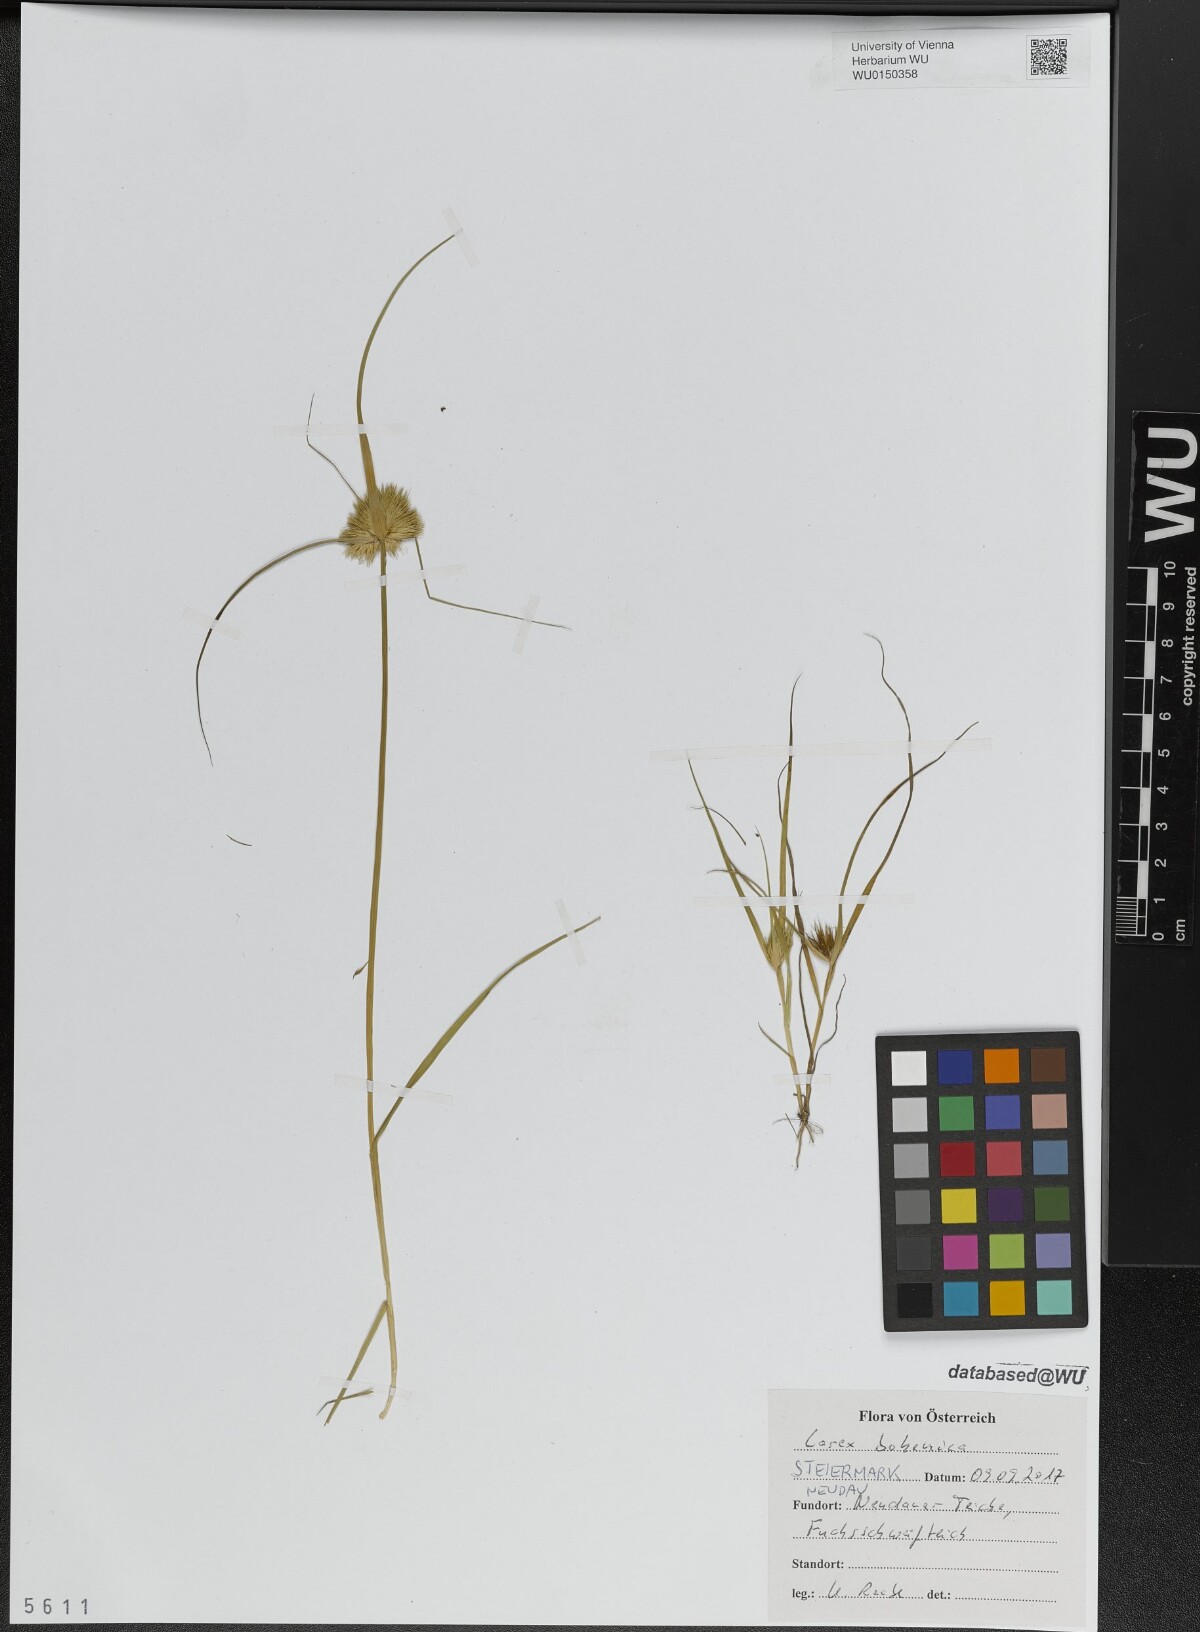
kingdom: Plantae
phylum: Tracheophyta
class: Liliopsida
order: Poales
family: Cyperaceae
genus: Carex
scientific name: Carex bohemica
